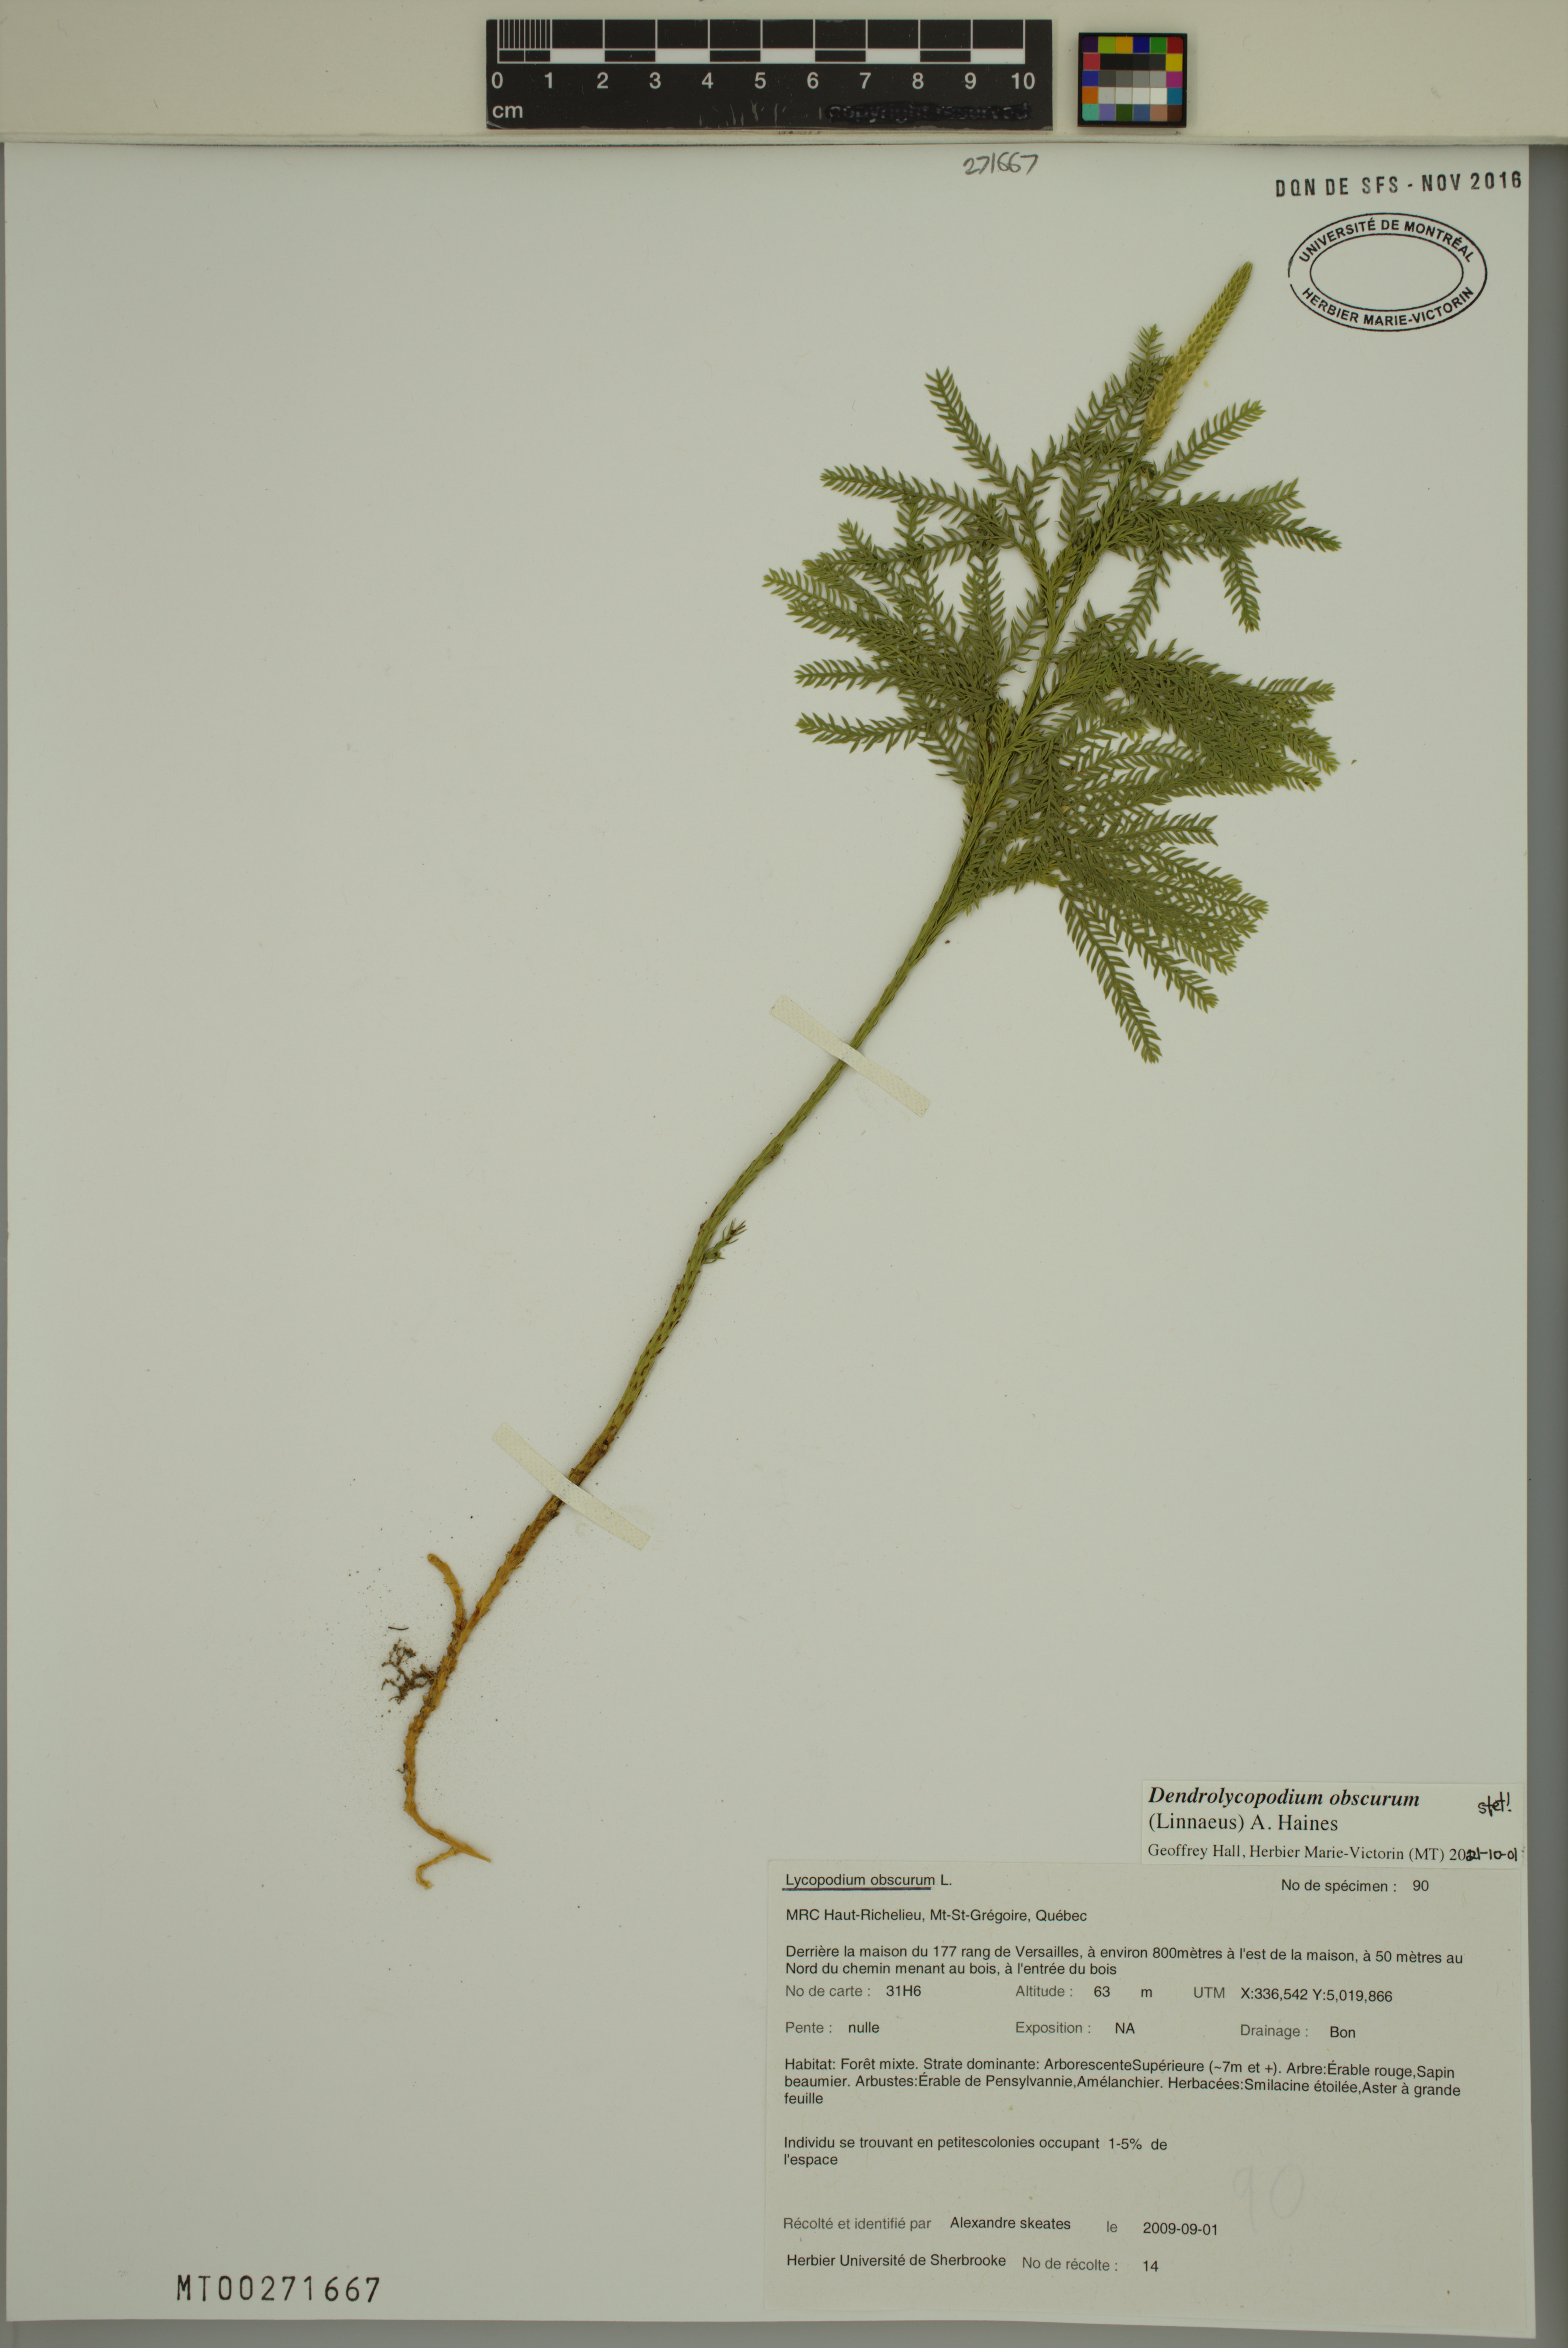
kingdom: Plantae
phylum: Tracheophyta
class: Lycopodiopsida
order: Lycopodiales
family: Lycopodiaceae
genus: Dendrolycopodium
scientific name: Dendrolycopodium obscurum
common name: Common ground-pine
